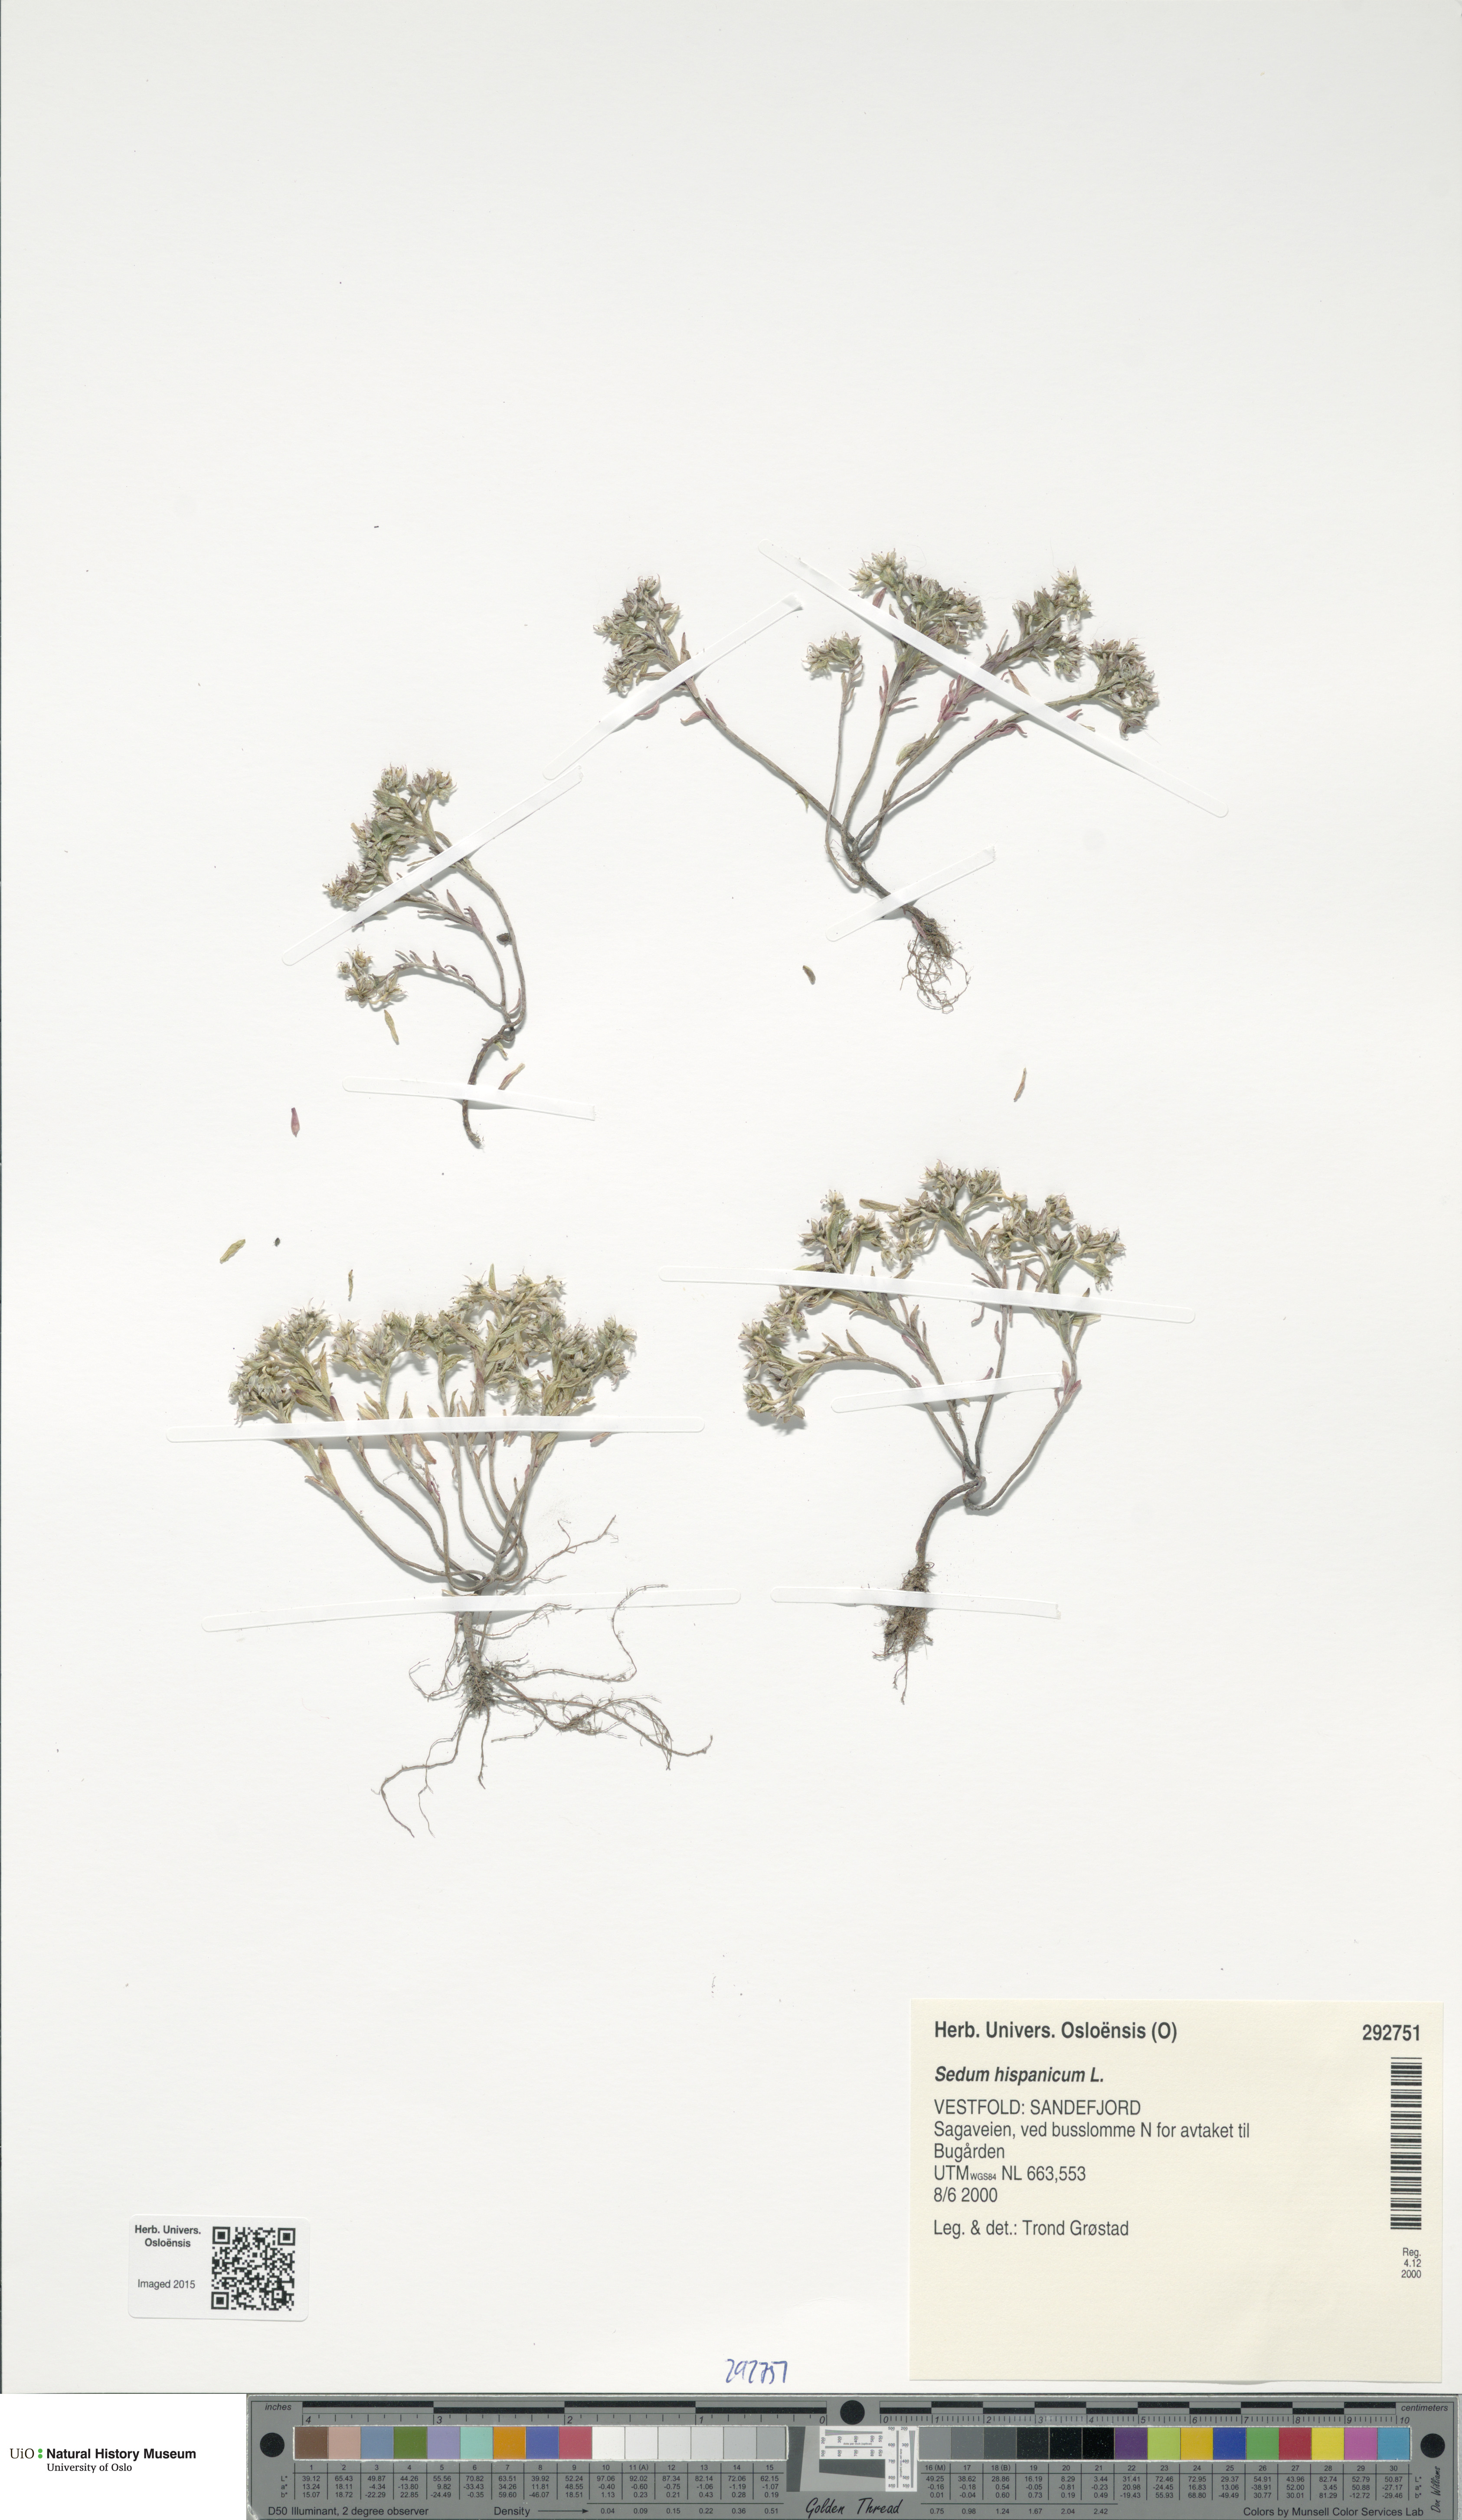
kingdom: Plantae
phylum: Tracheophyta
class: Magnoliopsida
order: Saxifragales
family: Crassulaceae
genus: Sedum
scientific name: Sedum hispanicum
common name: Spanish stonecrop
